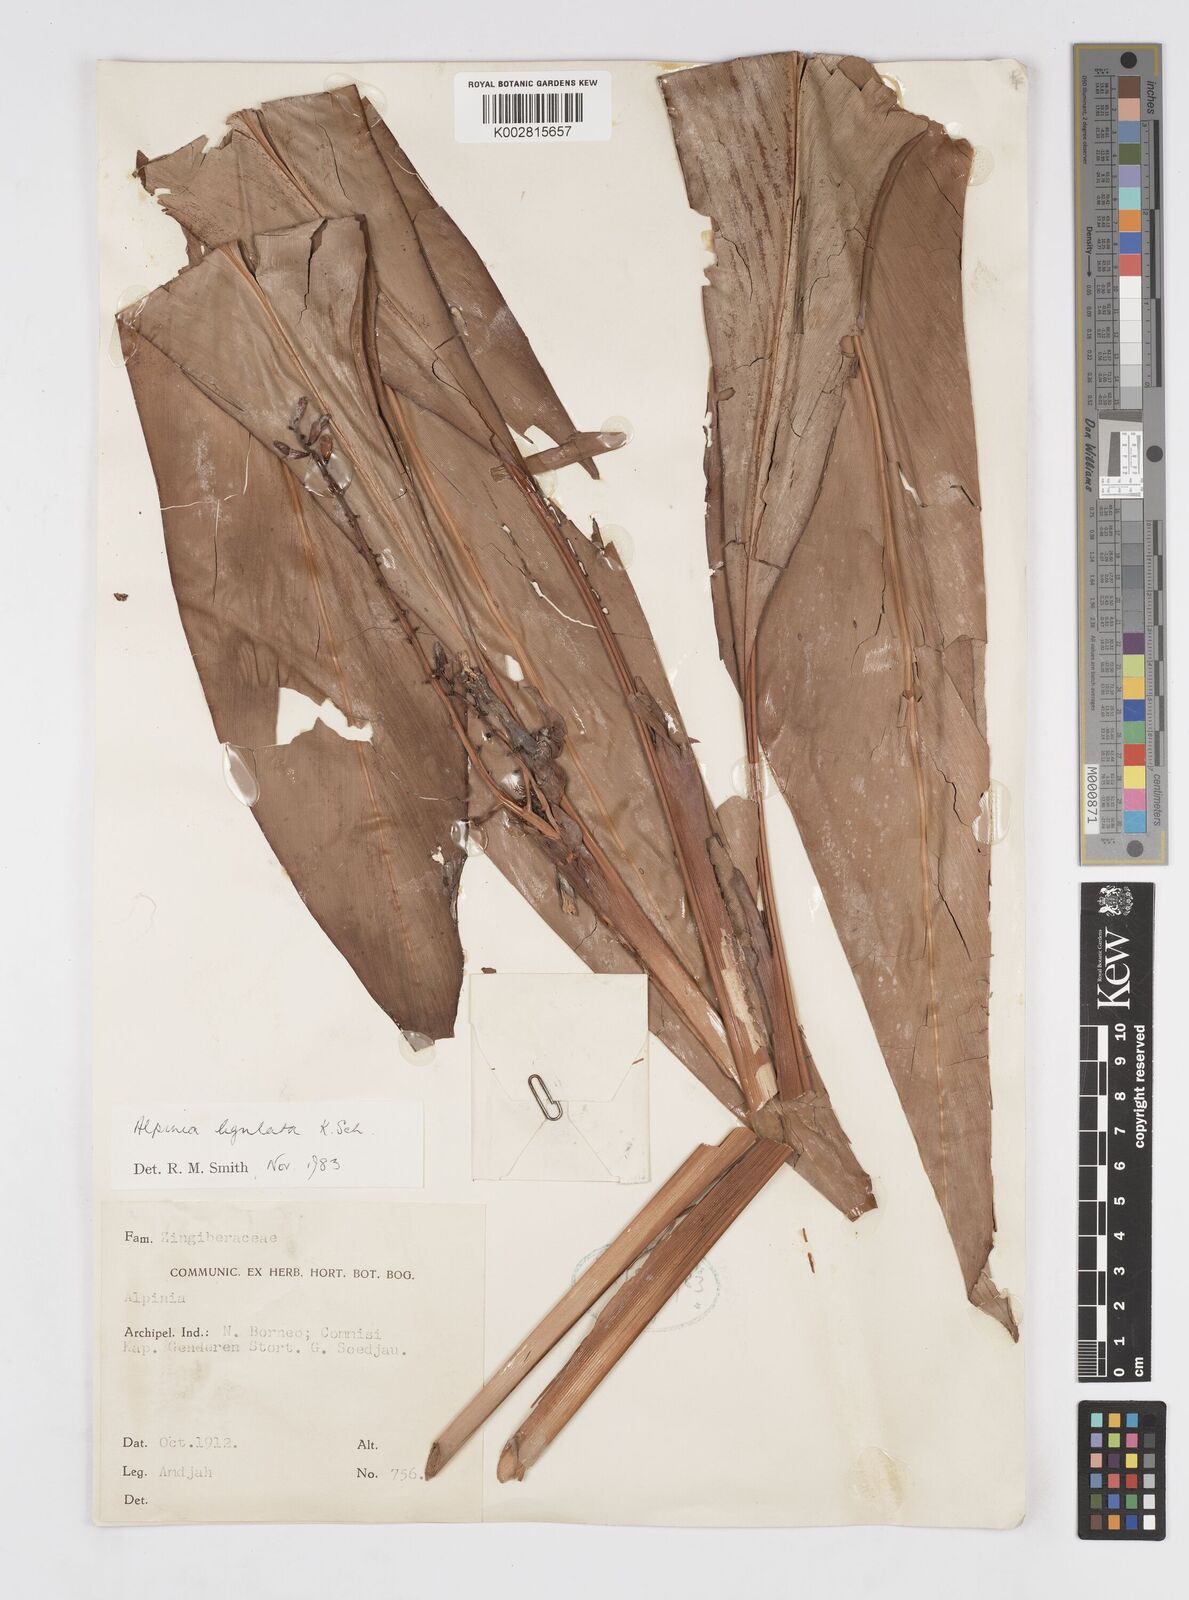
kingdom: Plantae
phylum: Tracheophyta
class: Liliopsida
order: Zingiberales
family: Zingiberaceae
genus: Alpinia
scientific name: Alpinia ligulata
